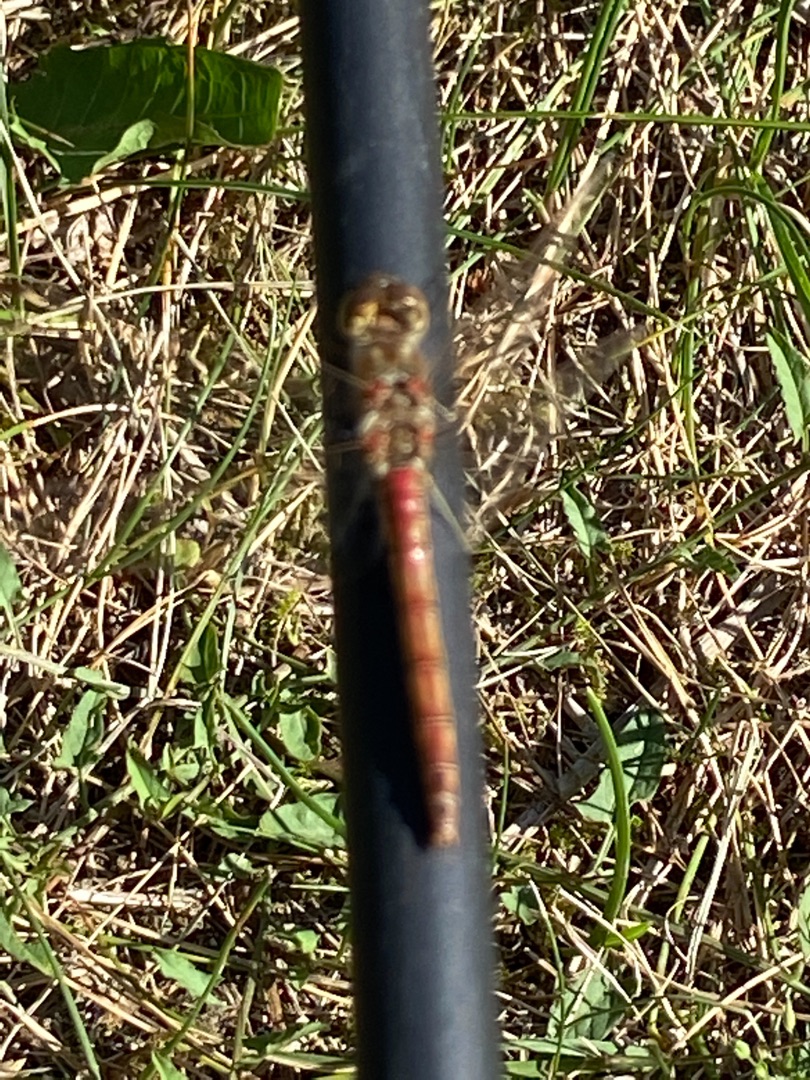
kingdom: Animalia
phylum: Arthropoda
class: Insecta
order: Odonata
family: Libellulidae
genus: Sympetrum
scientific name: Sympetrum vulgatum
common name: Almindelig hedelibel
